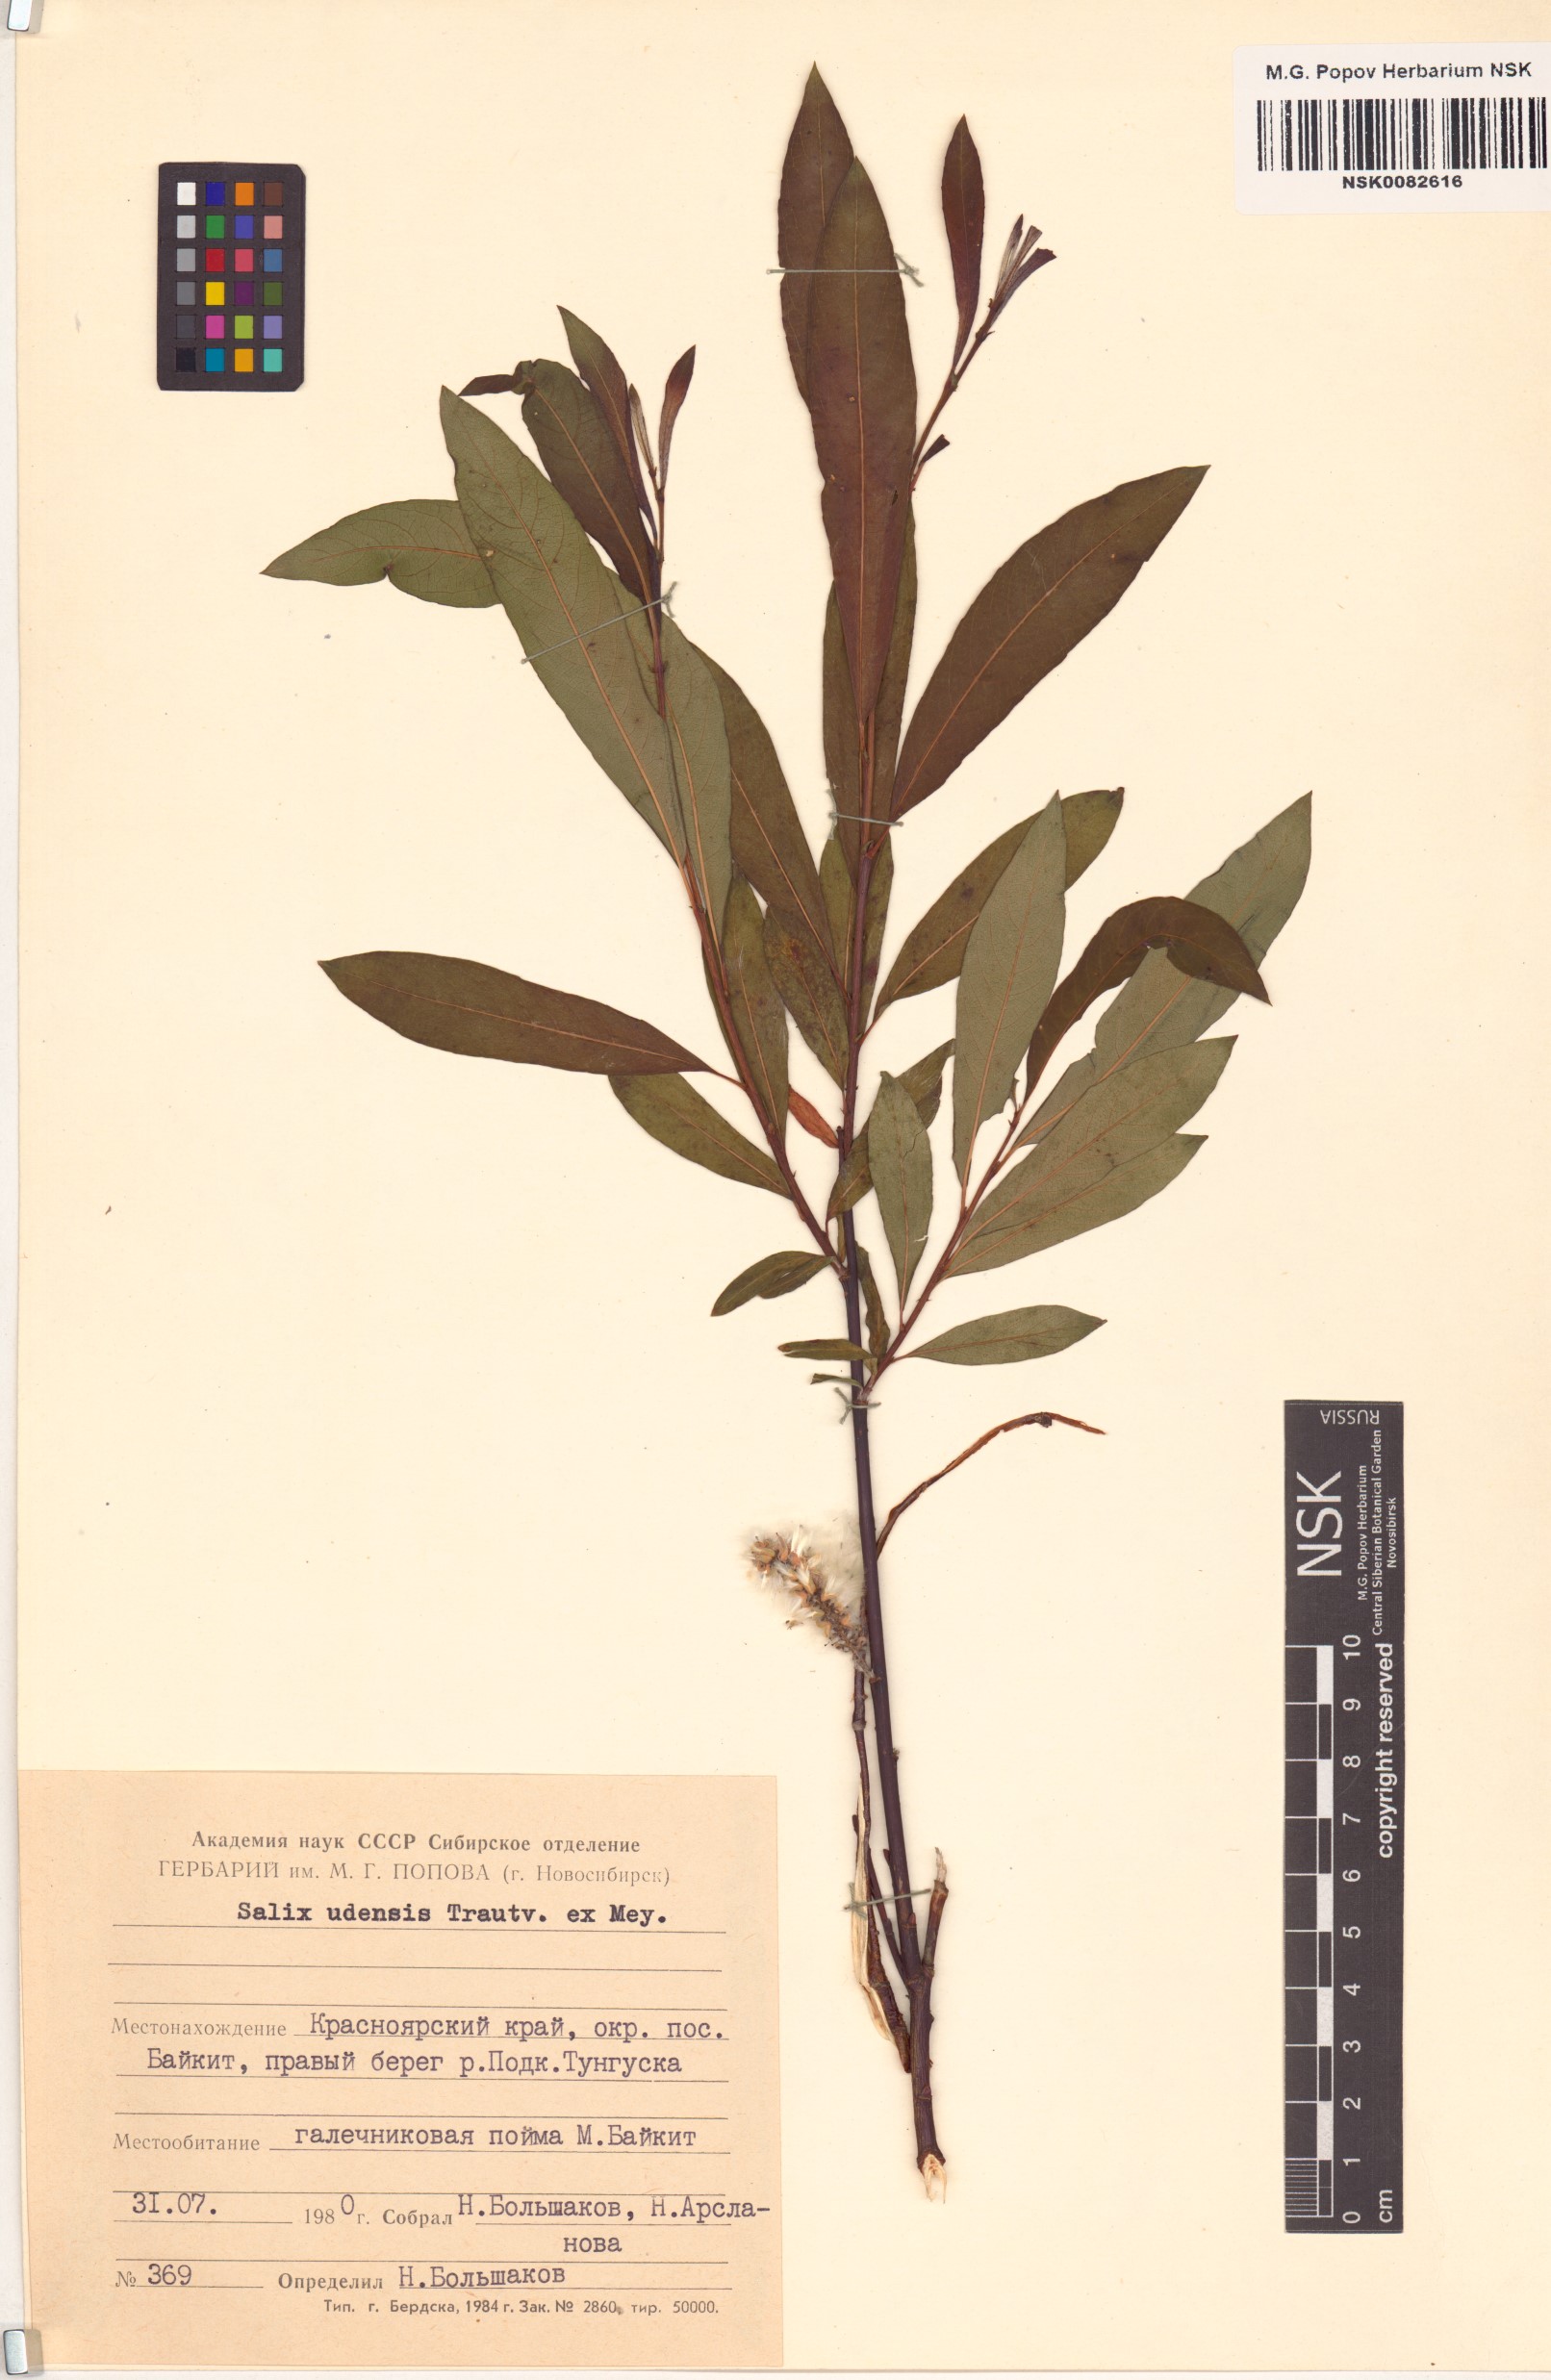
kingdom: Plantae
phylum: Tracheophyta
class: Magnoliopsida
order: Malpighiales
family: Salicaceae
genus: Salix
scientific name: Salix udensis
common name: Sachalin willow
